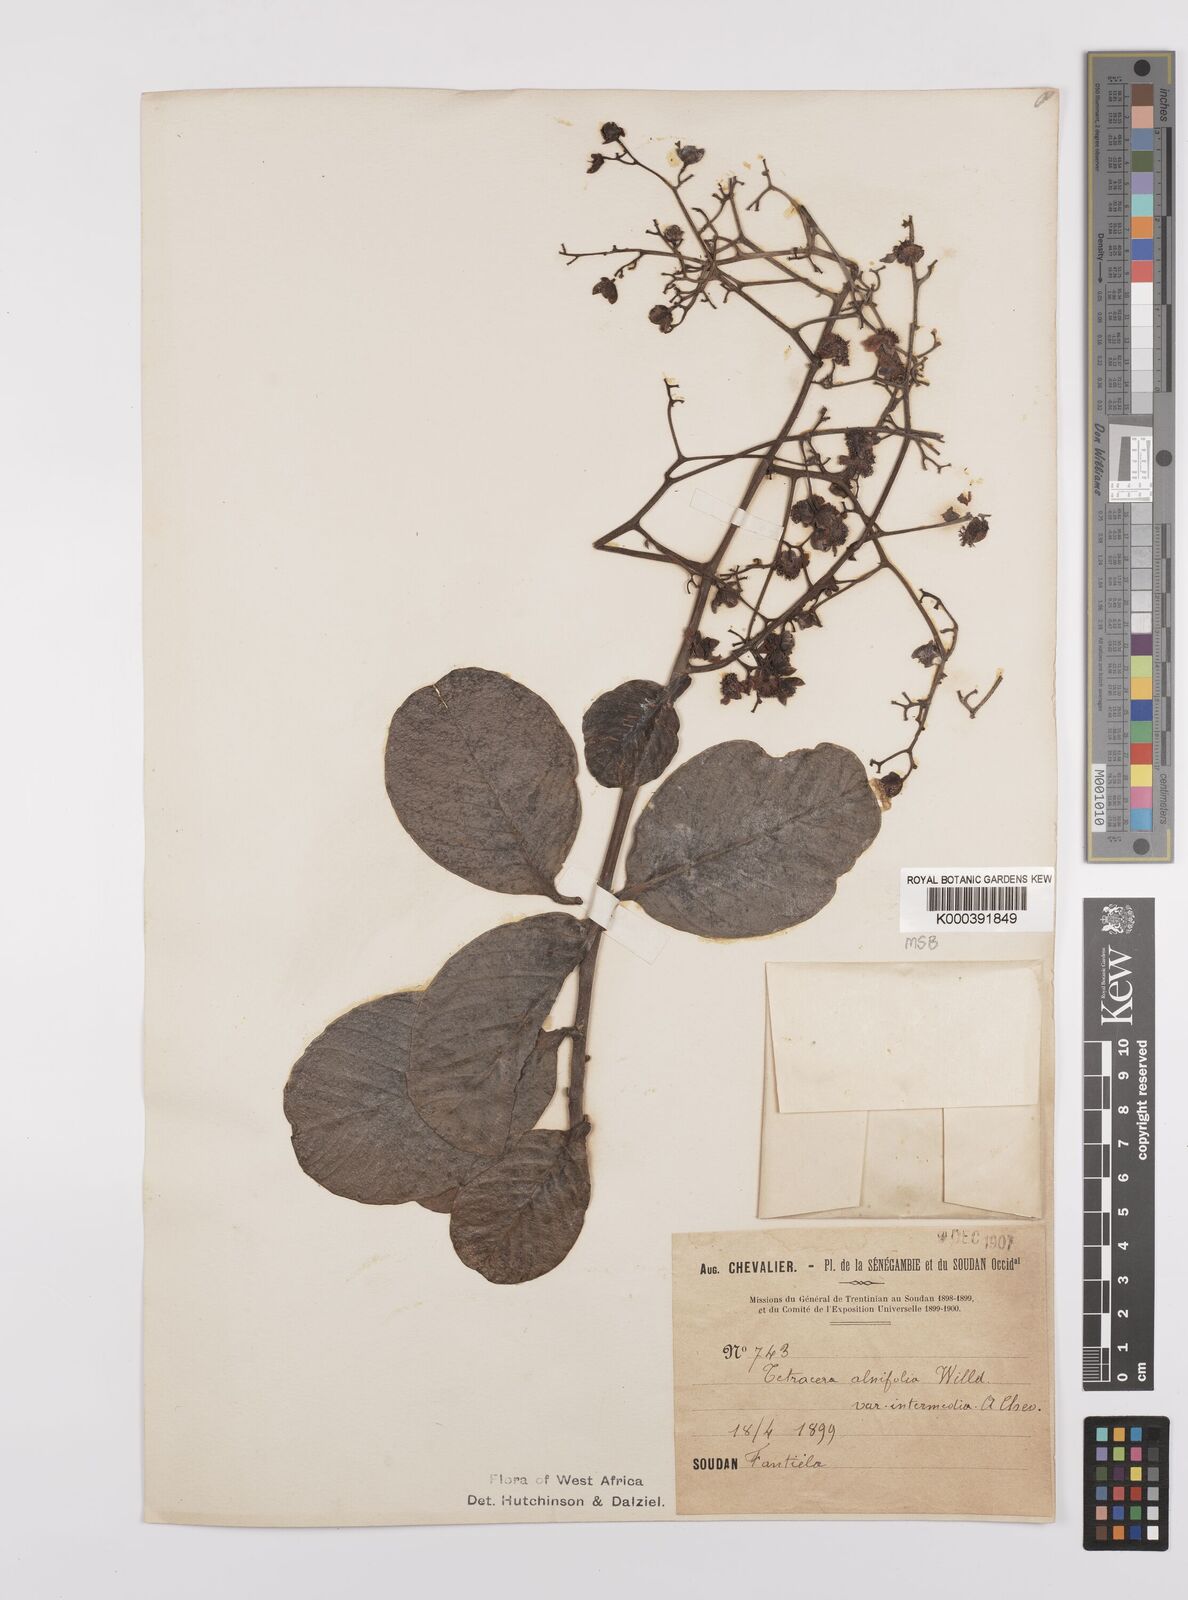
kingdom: Plantae
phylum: Tracheophyta
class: Magnoliopsida
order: Dilleniales
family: Dilleniaceae
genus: Tetracera
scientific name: Tetracera alnifolia
